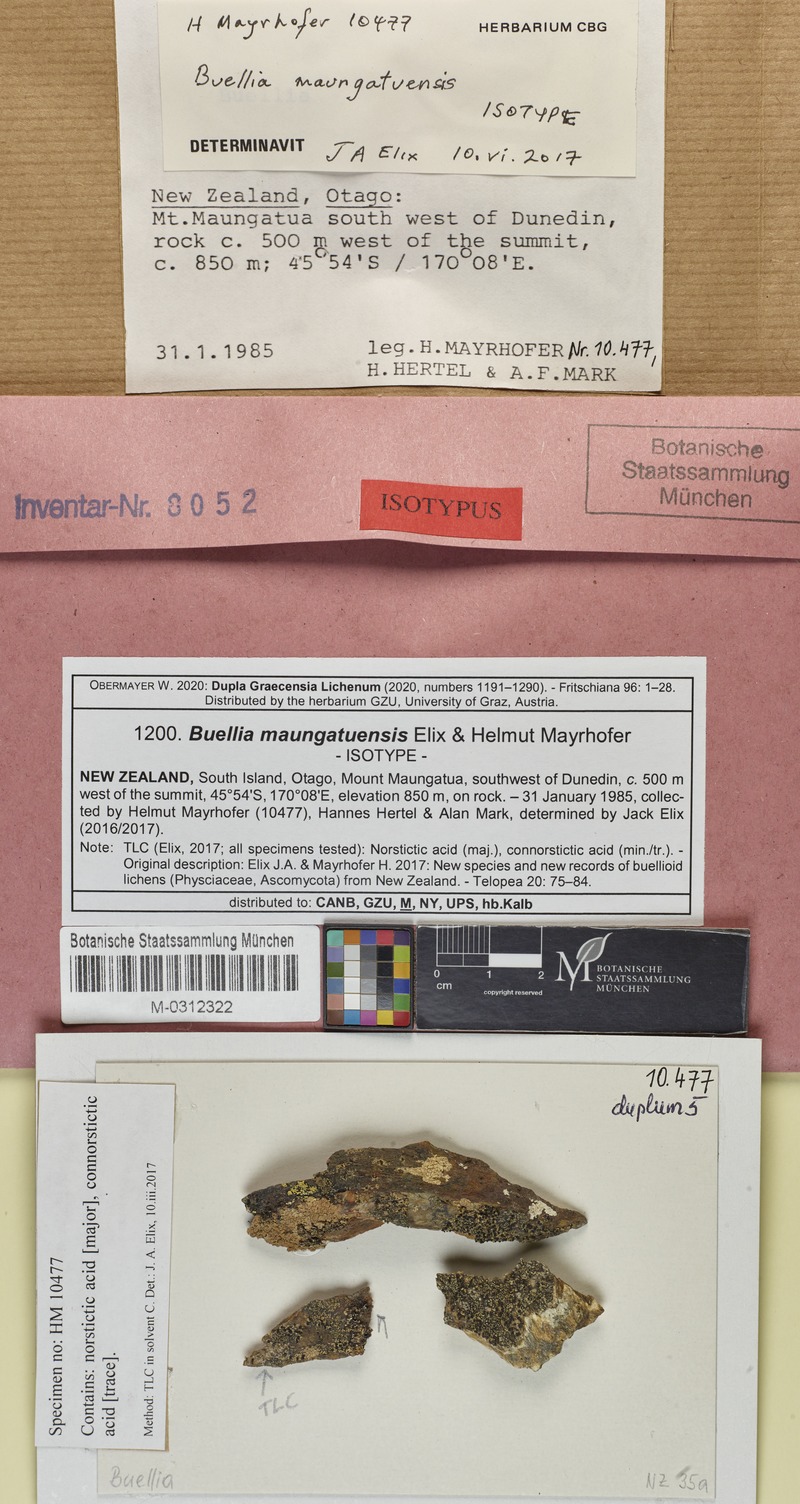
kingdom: Fungi
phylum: Ascomycota
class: Lecanoromycetes
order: Caliciales
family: Caliciaceae
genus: Buellia
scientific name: Buellia maungatuensis
